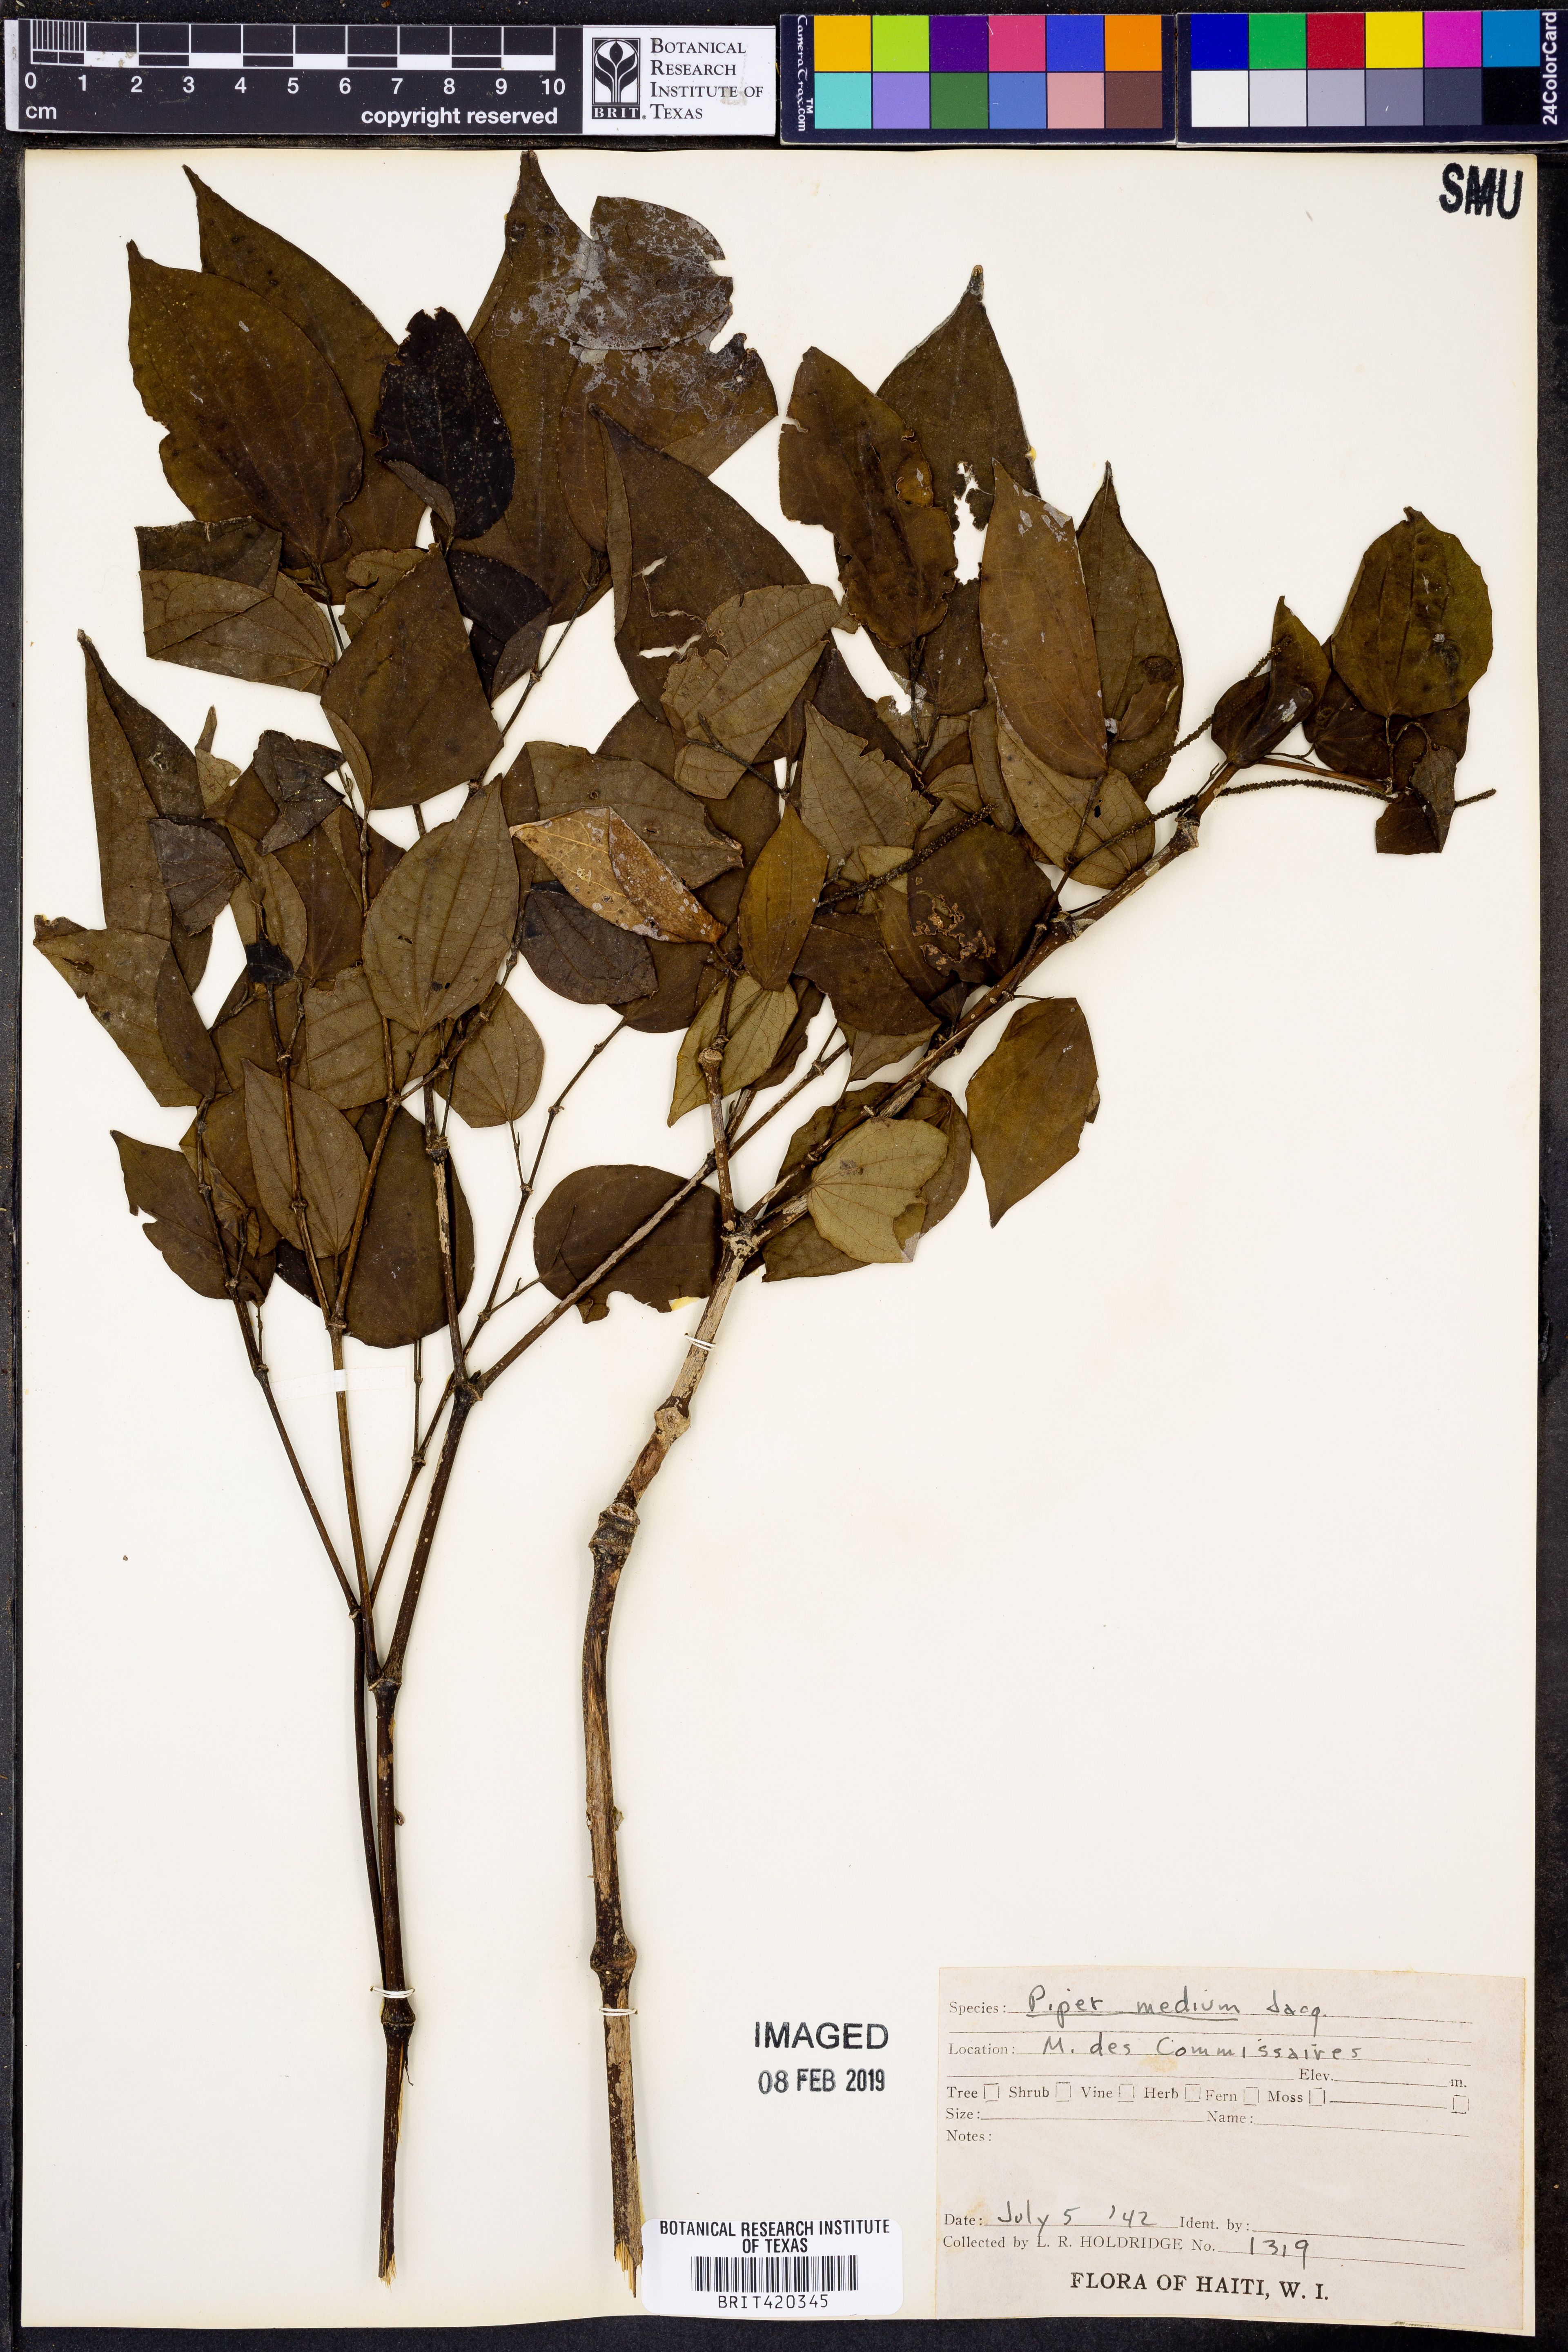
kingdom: Plantae
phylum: Tracheophyta
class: Magnoliopsida
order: Piperales
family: Piperaceae
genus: Piper
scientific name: Piper amalago
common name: Pepper-elder
